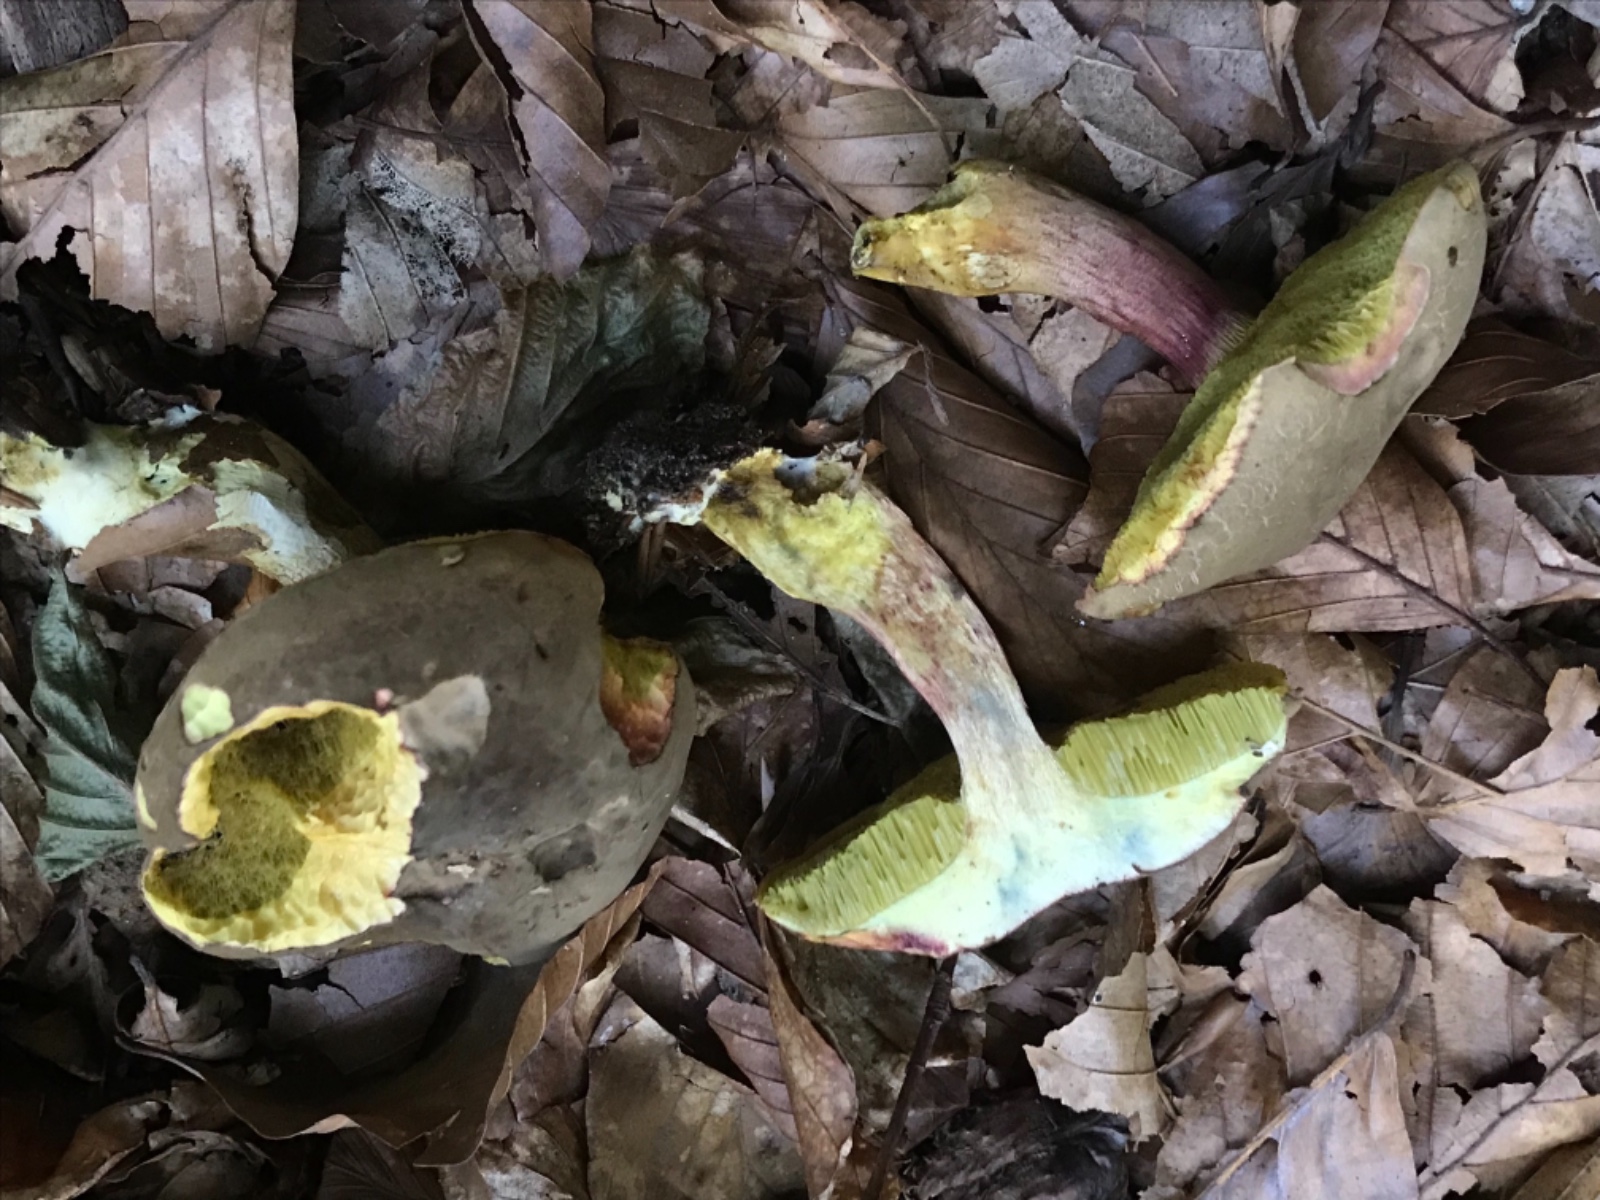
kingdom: Fungi
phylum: Basidiomycota
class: Agaricomycetes
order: Boletales
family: Boletaceae
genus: Xerocomellus
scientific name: Xerocomellus
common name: dværgrørhat
